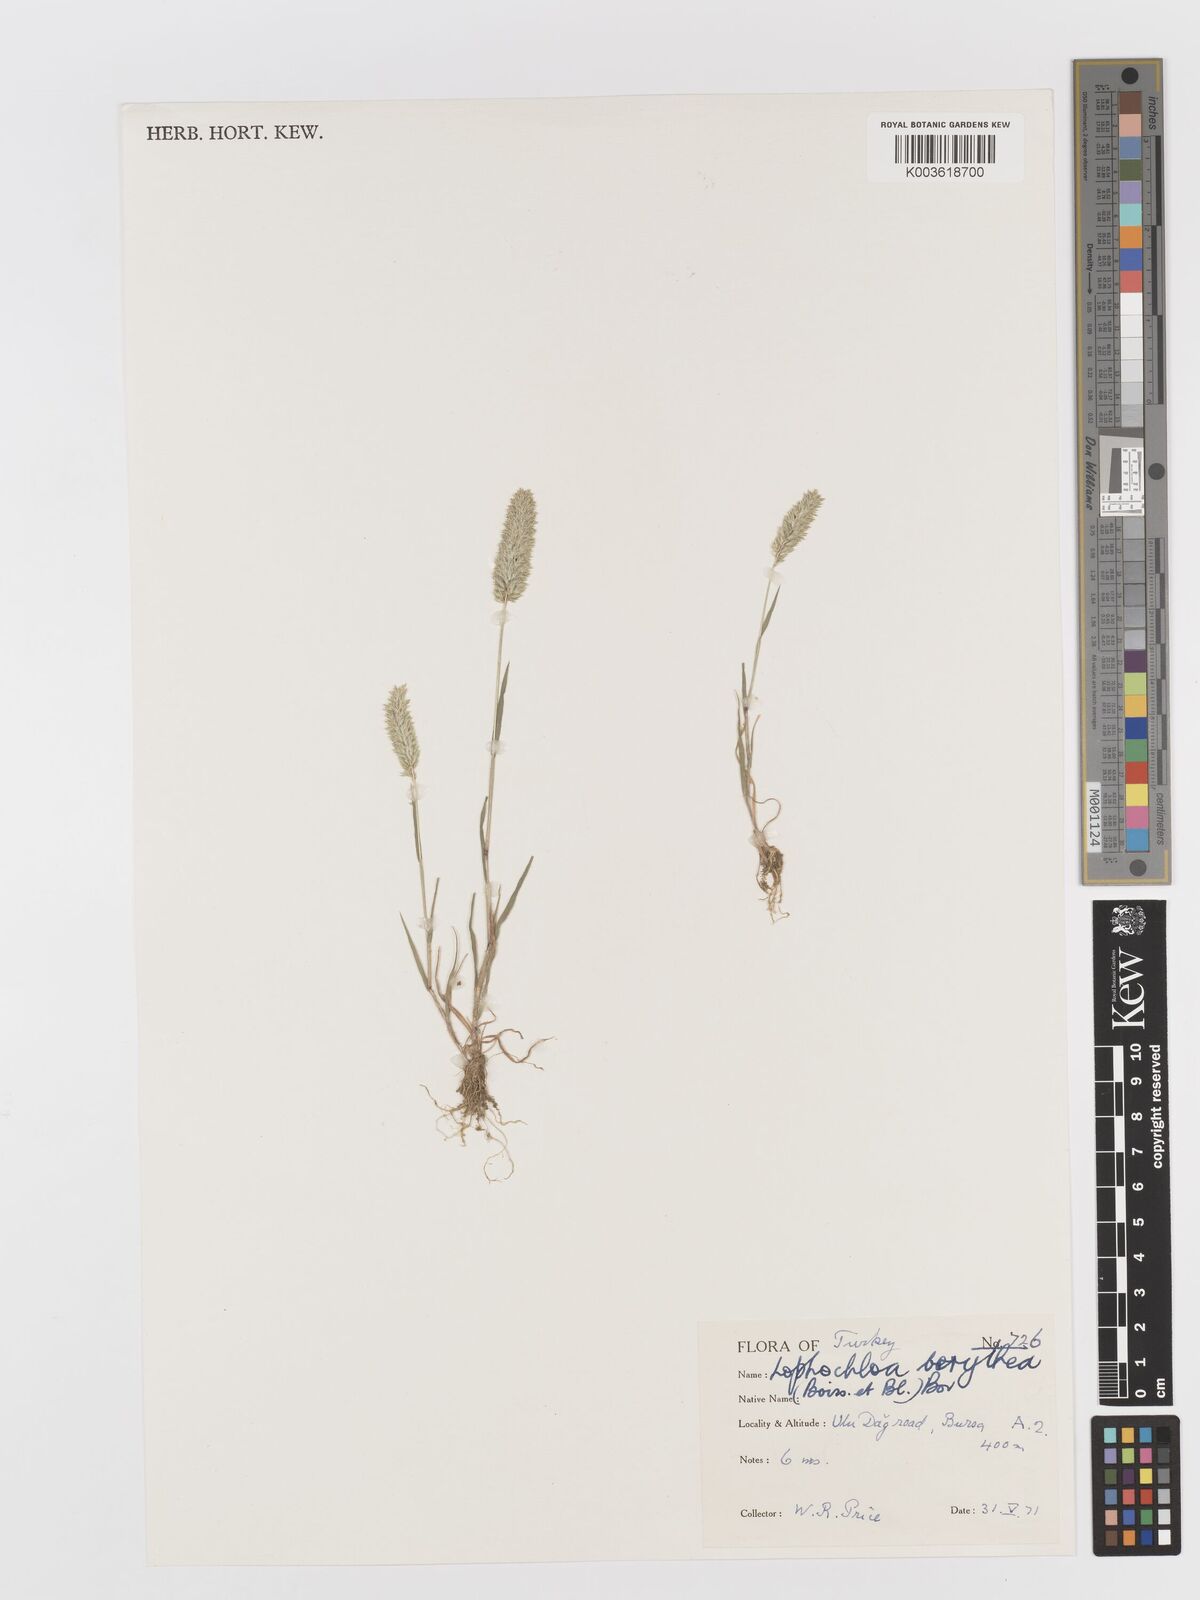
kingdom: Plantae
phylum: Tracheophyta
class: Liliopsida
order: Poales
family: Poaceae
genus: Rostraria
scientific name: Rostraria smyrnaea
